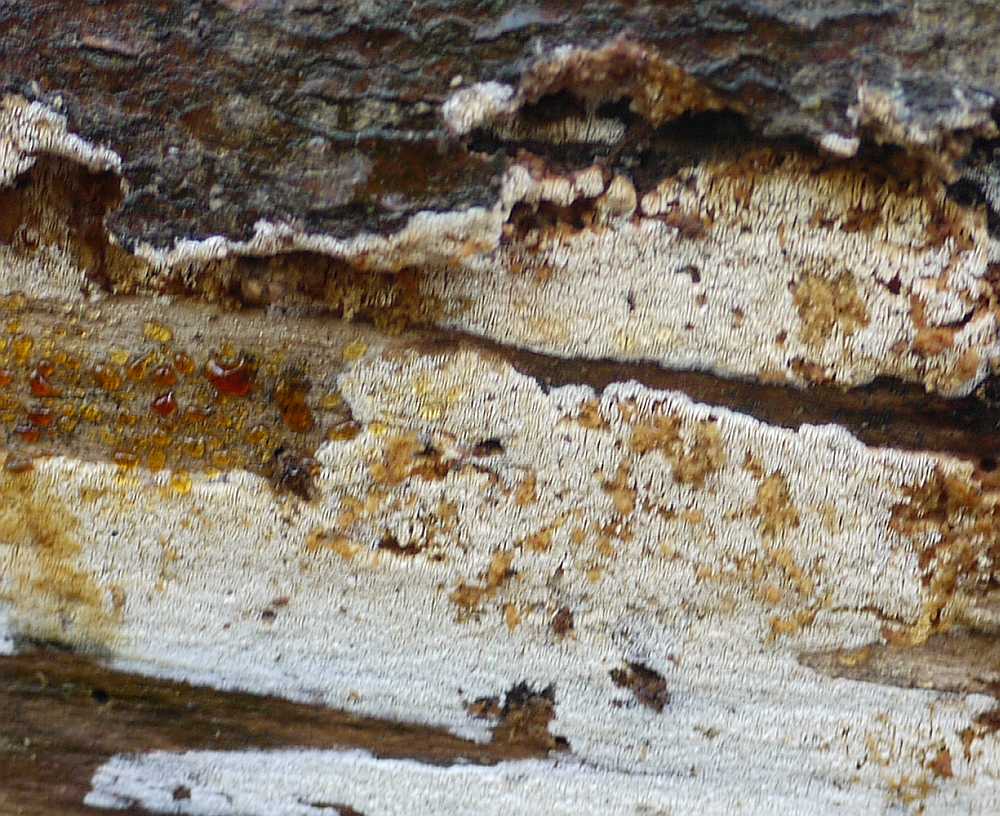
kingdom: Fungi
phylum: Basidiomycota
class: Agaricomycetes
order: Hymenochaetales
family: Schizoporaceae
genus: Xylodon
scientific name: Xylodon subtropicus
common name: labyrint-tandsvamp
